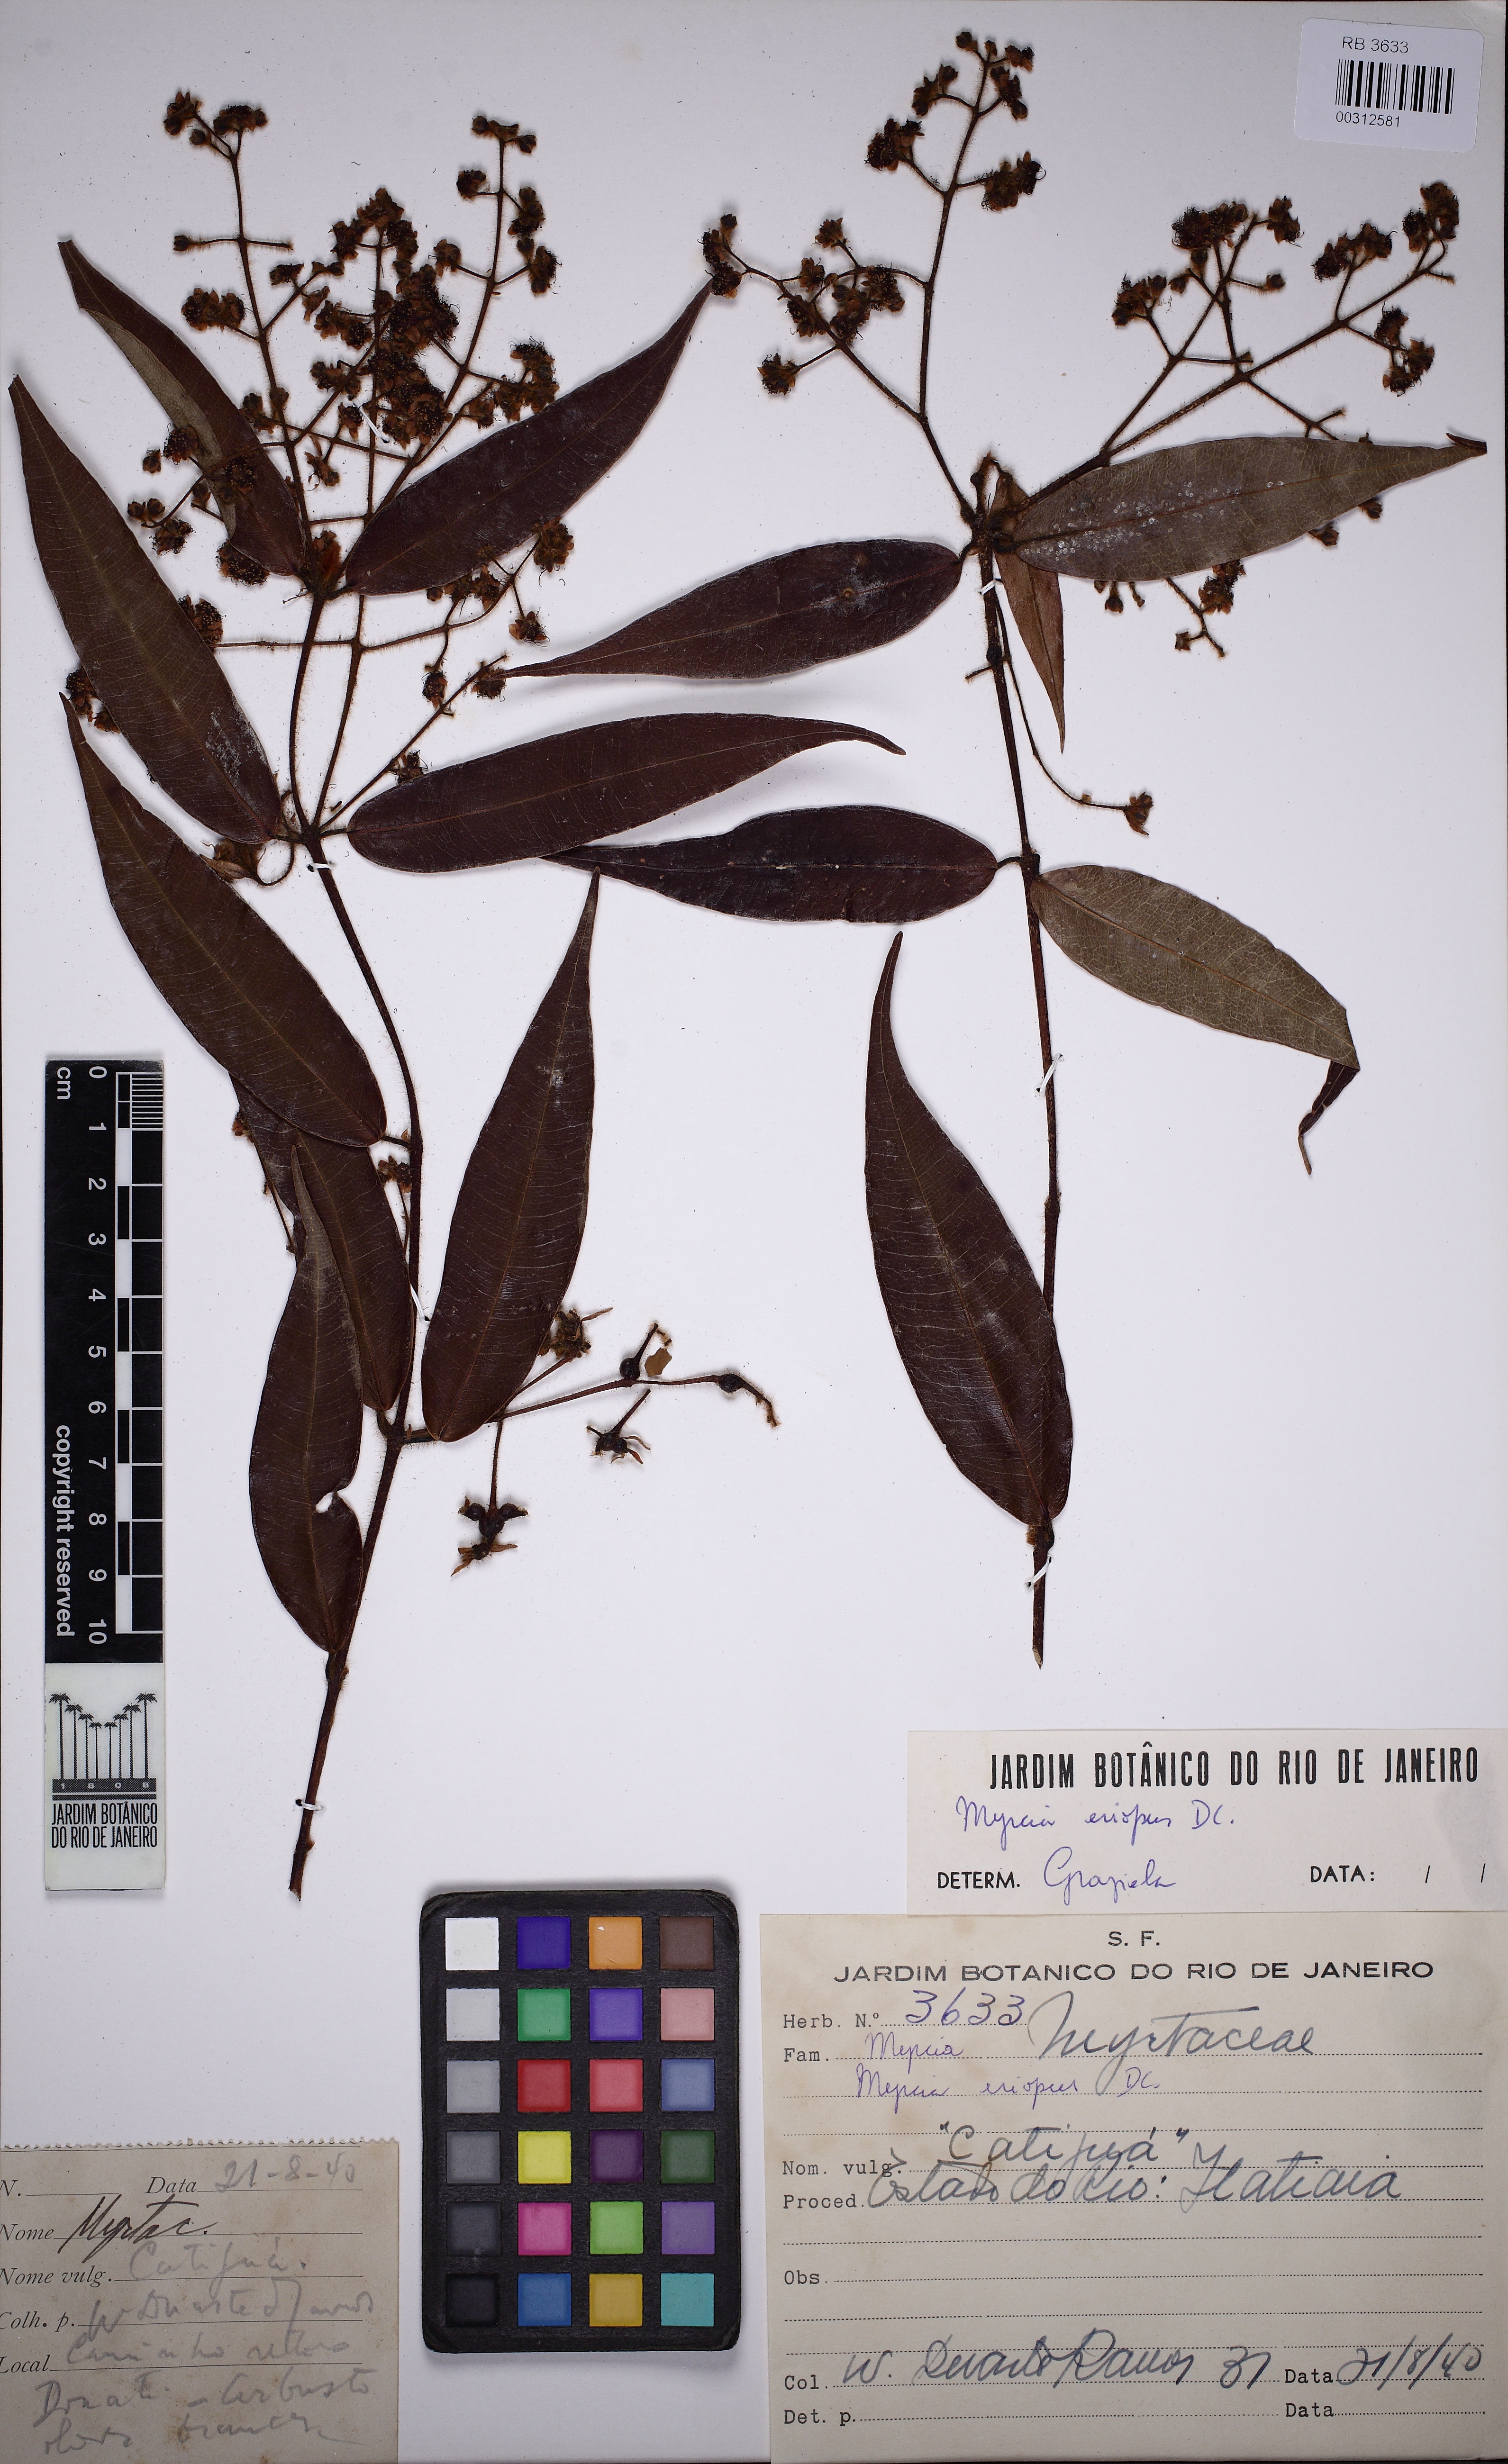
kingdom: Plantae
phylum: Tracheophyta
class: Magnoliopsida
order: Myrtales
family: Myrtaceae
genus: Myrcia
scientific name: Myrcia eriopus
